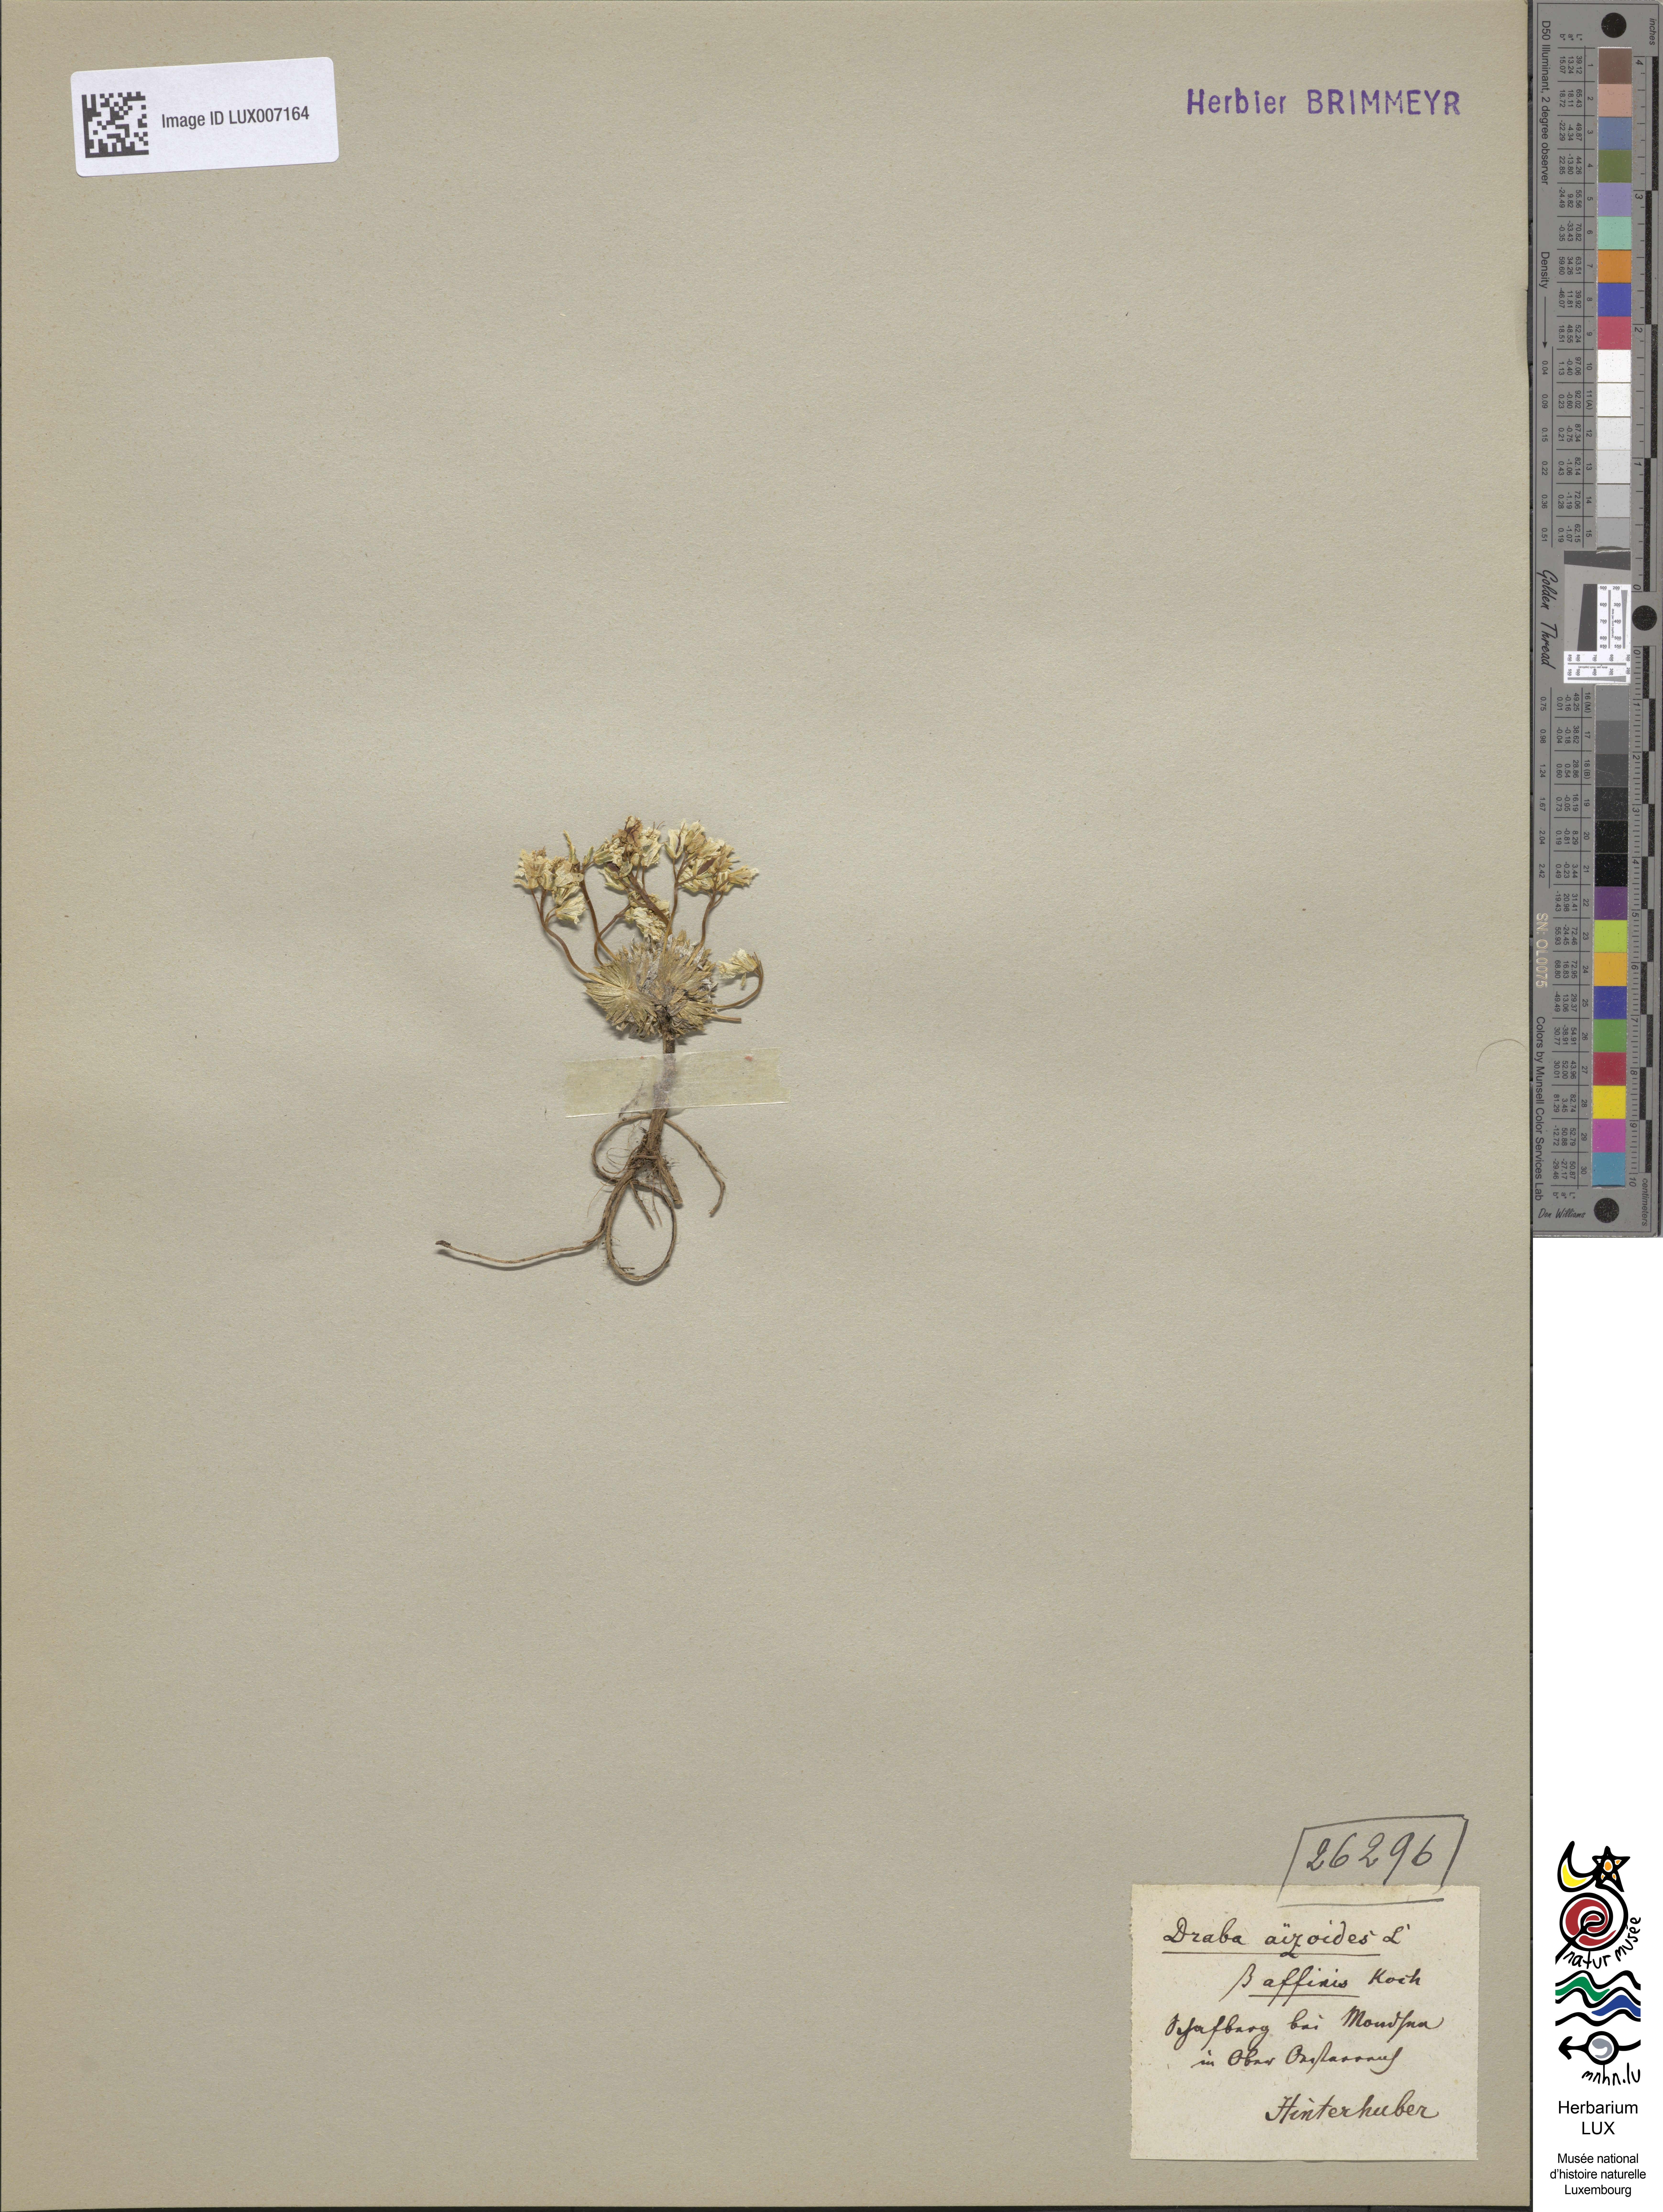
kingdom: Plantae
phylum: Tracheophyta
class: Magnoliopsida
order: Brassicales
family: Brassicaceae
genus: Draba
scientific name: Draba aizoides
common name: Yellow whitlowgrass
